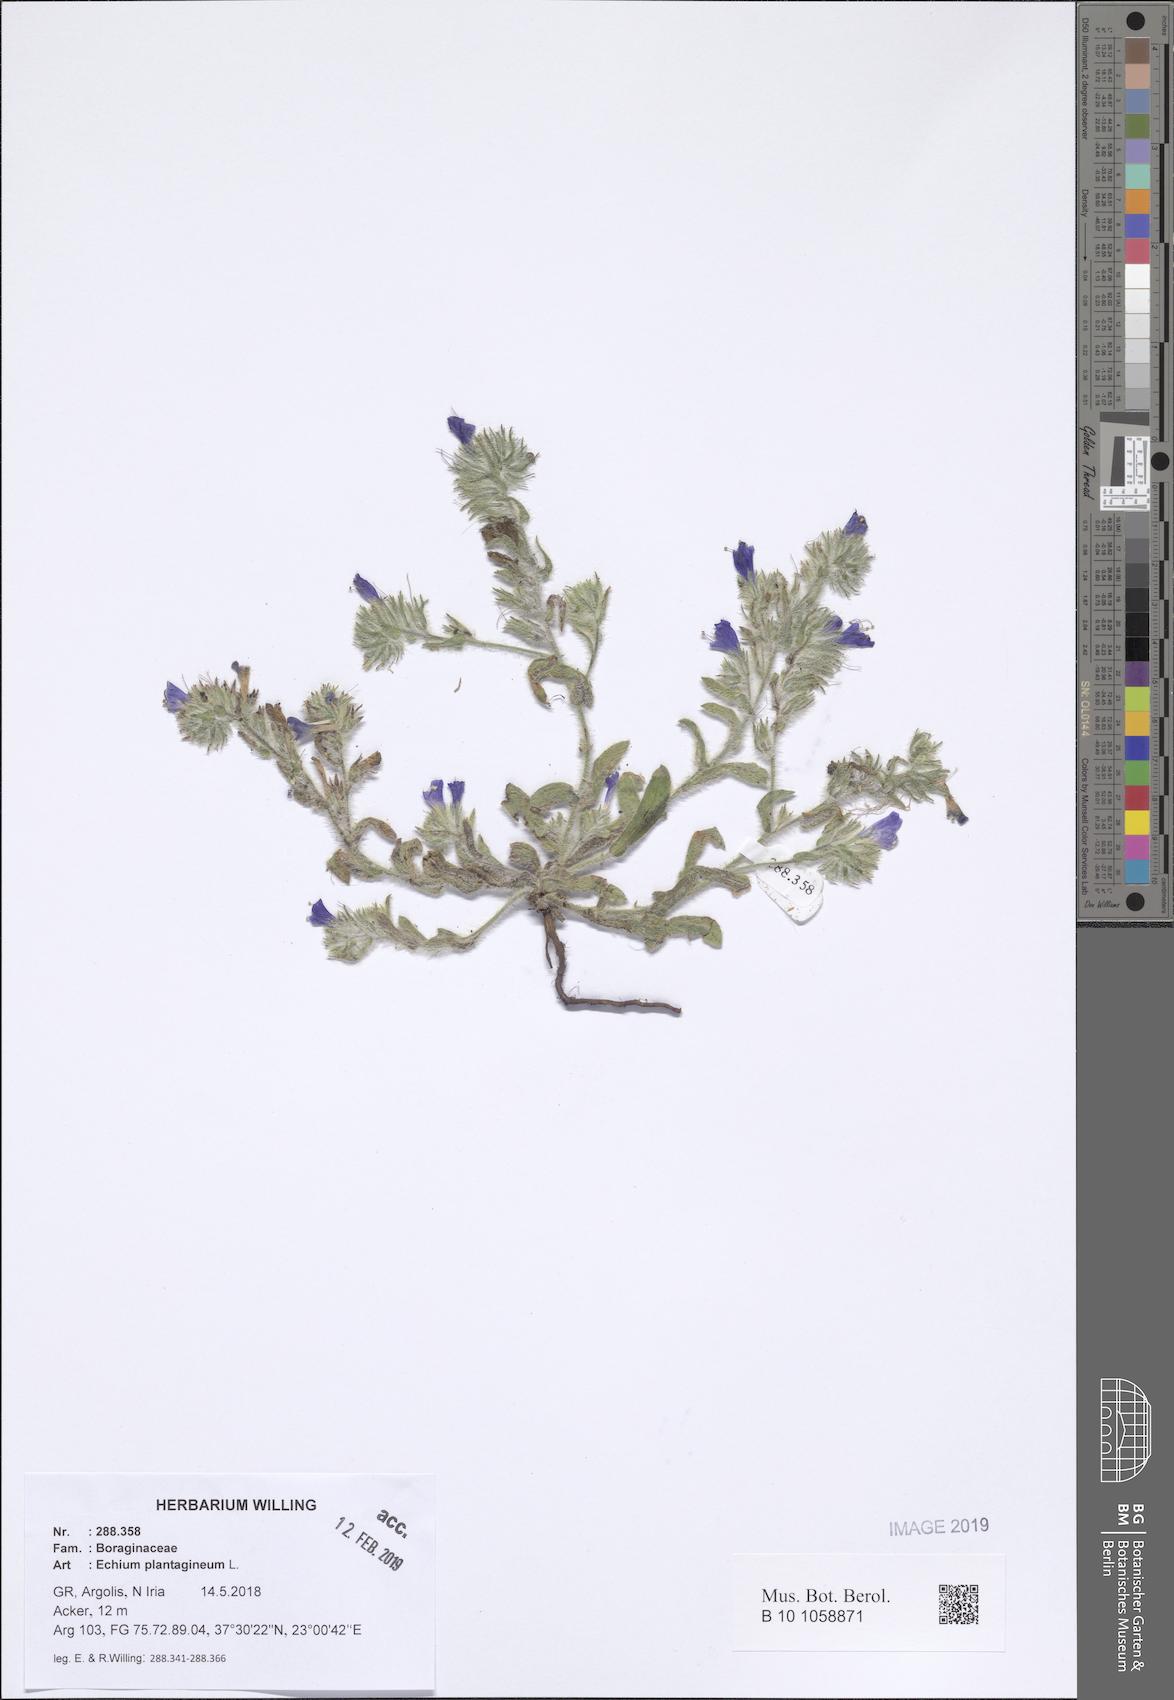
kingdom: Plantae
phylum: Tracheophyta
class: Magnoliopsida
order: Boraginales
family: Boraginaceae
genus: Echium
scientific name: Echium plantagineum
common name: Purple viper's-bugloss
